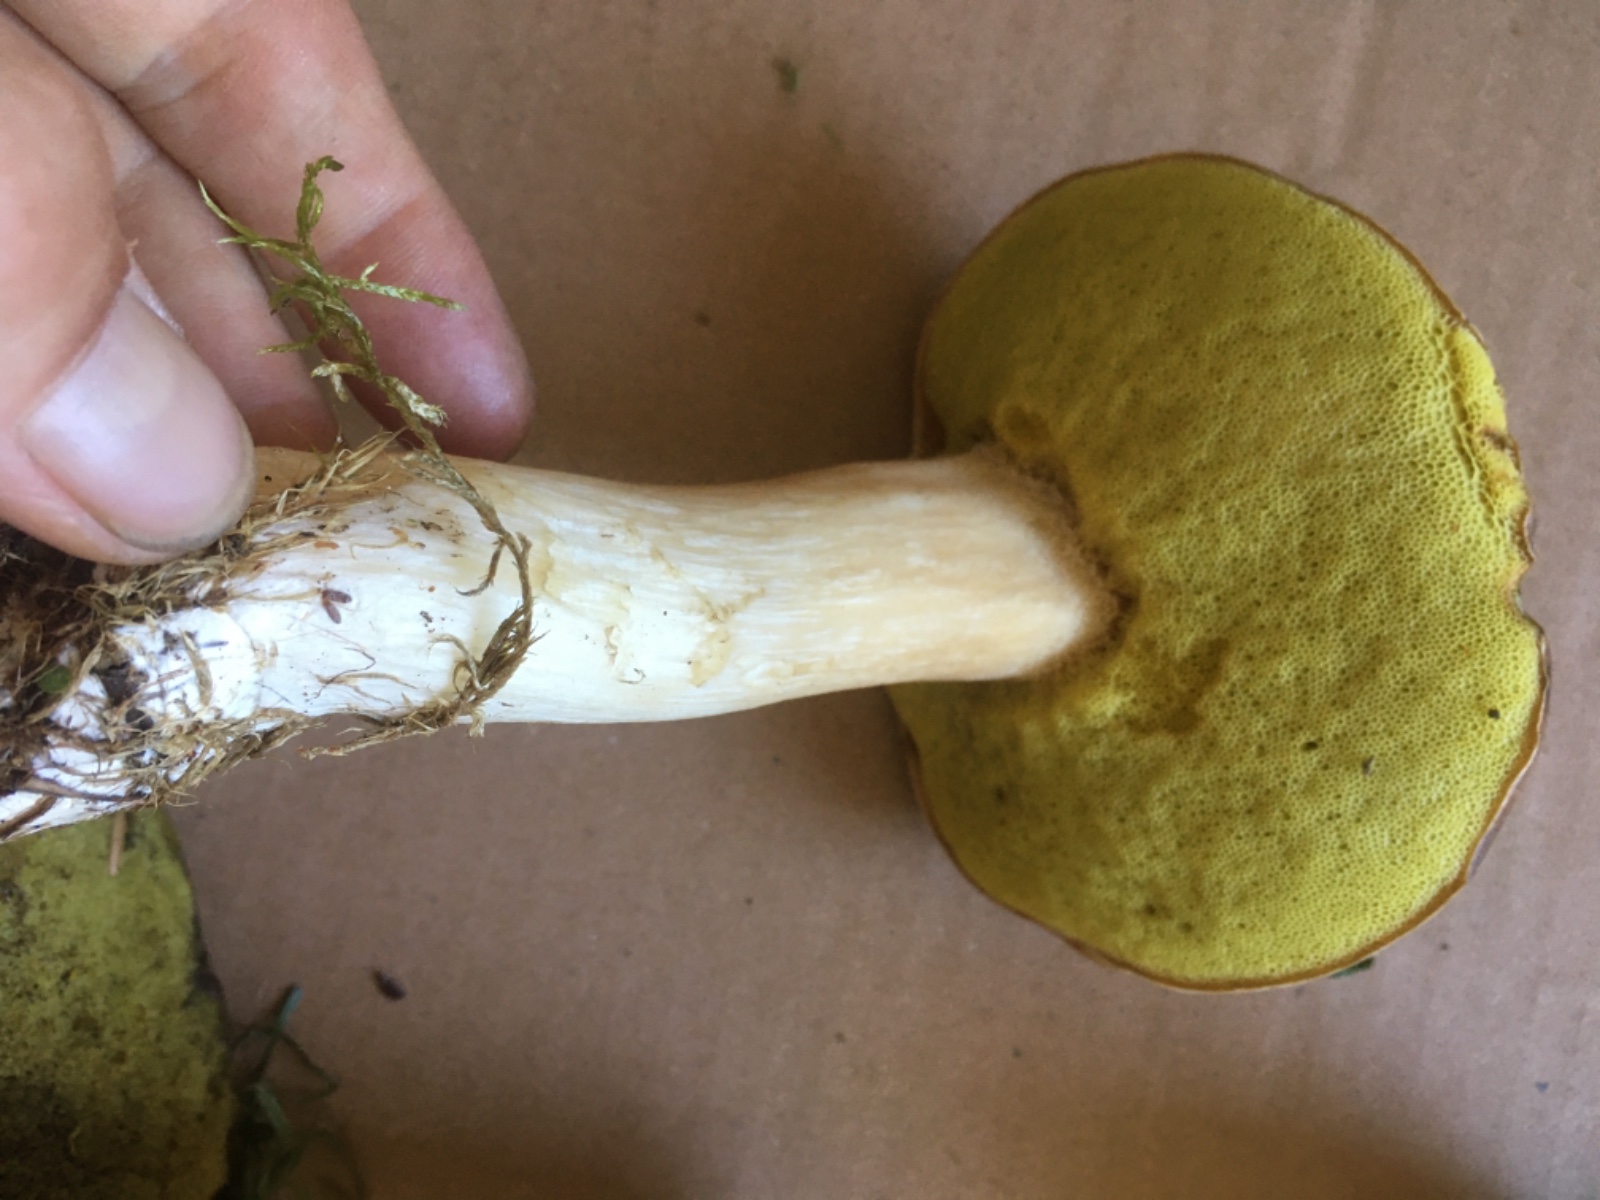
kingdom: Fungi
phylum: Basidiomycota
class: Agaricomycetes
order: Boletales
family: Boletaceae
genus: Boletus
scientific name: Boletus edulis
